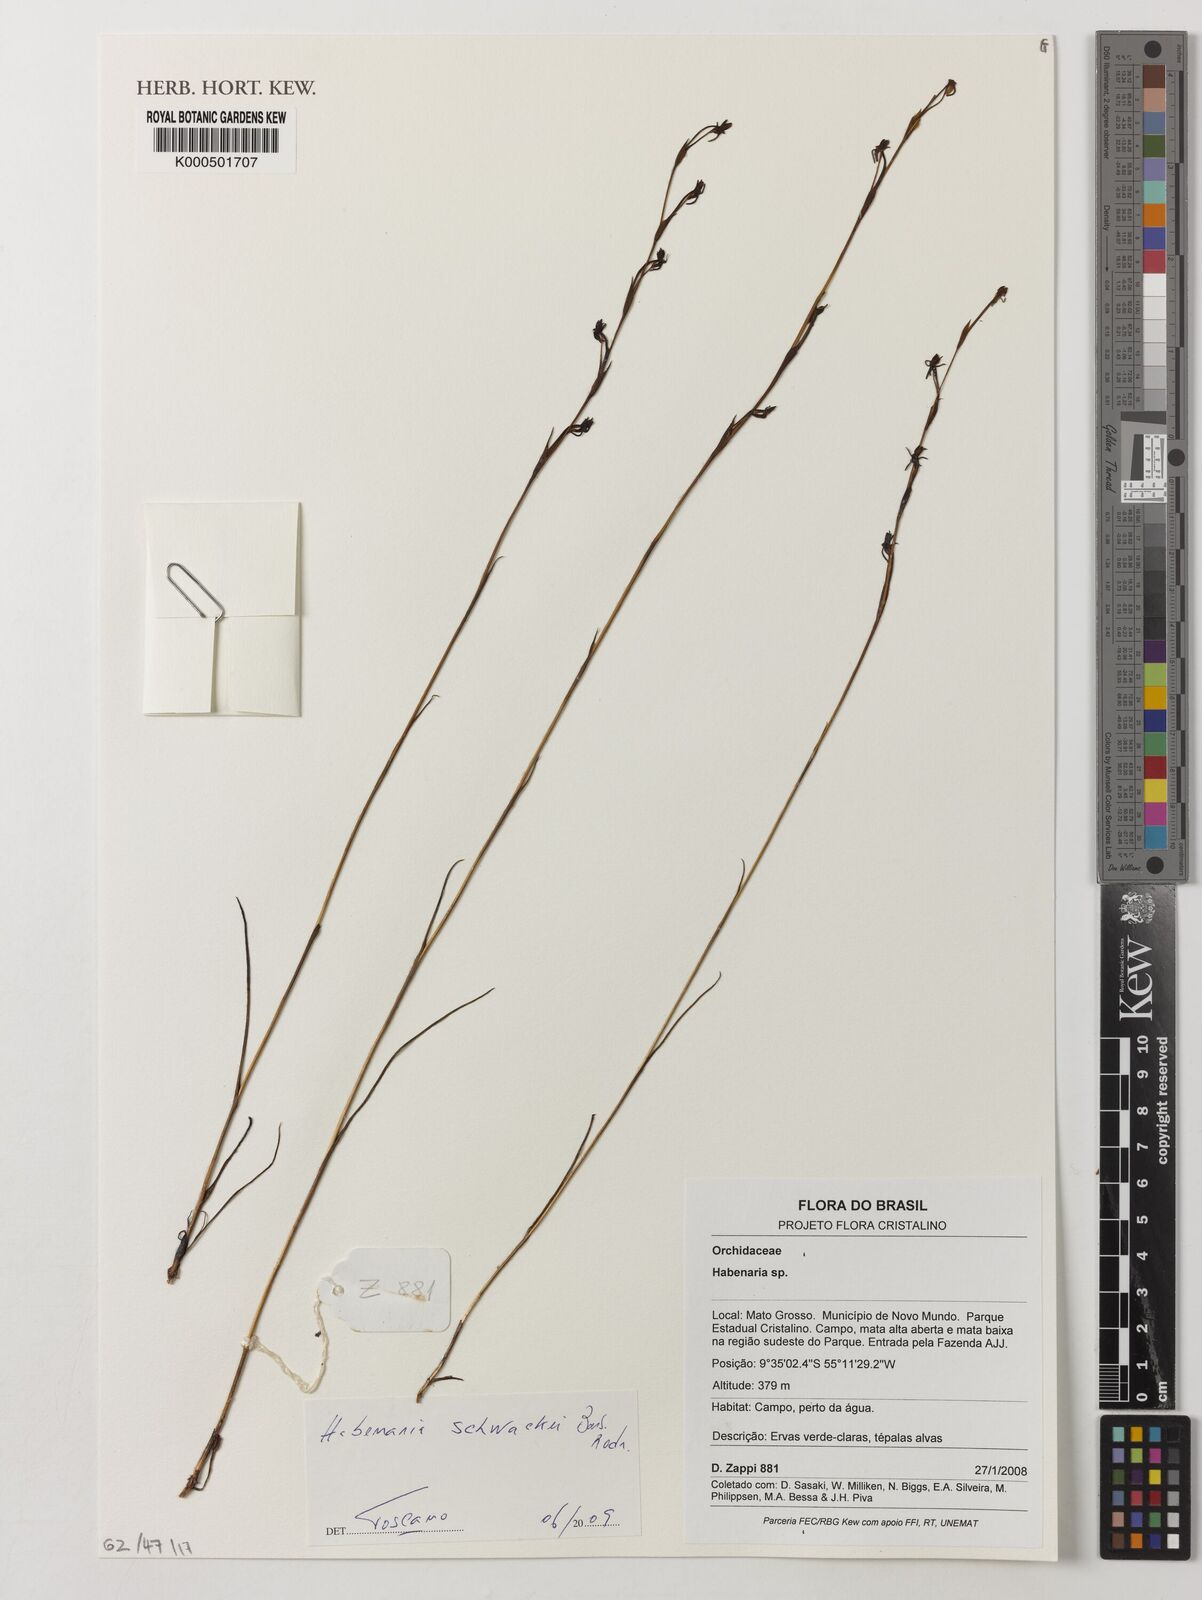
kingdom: Plantae
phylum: Tracheophyta
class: Liliopsida
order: Asparagales
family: Orchidaceae
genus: Habenaria
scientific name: Habenaria leprieurii
